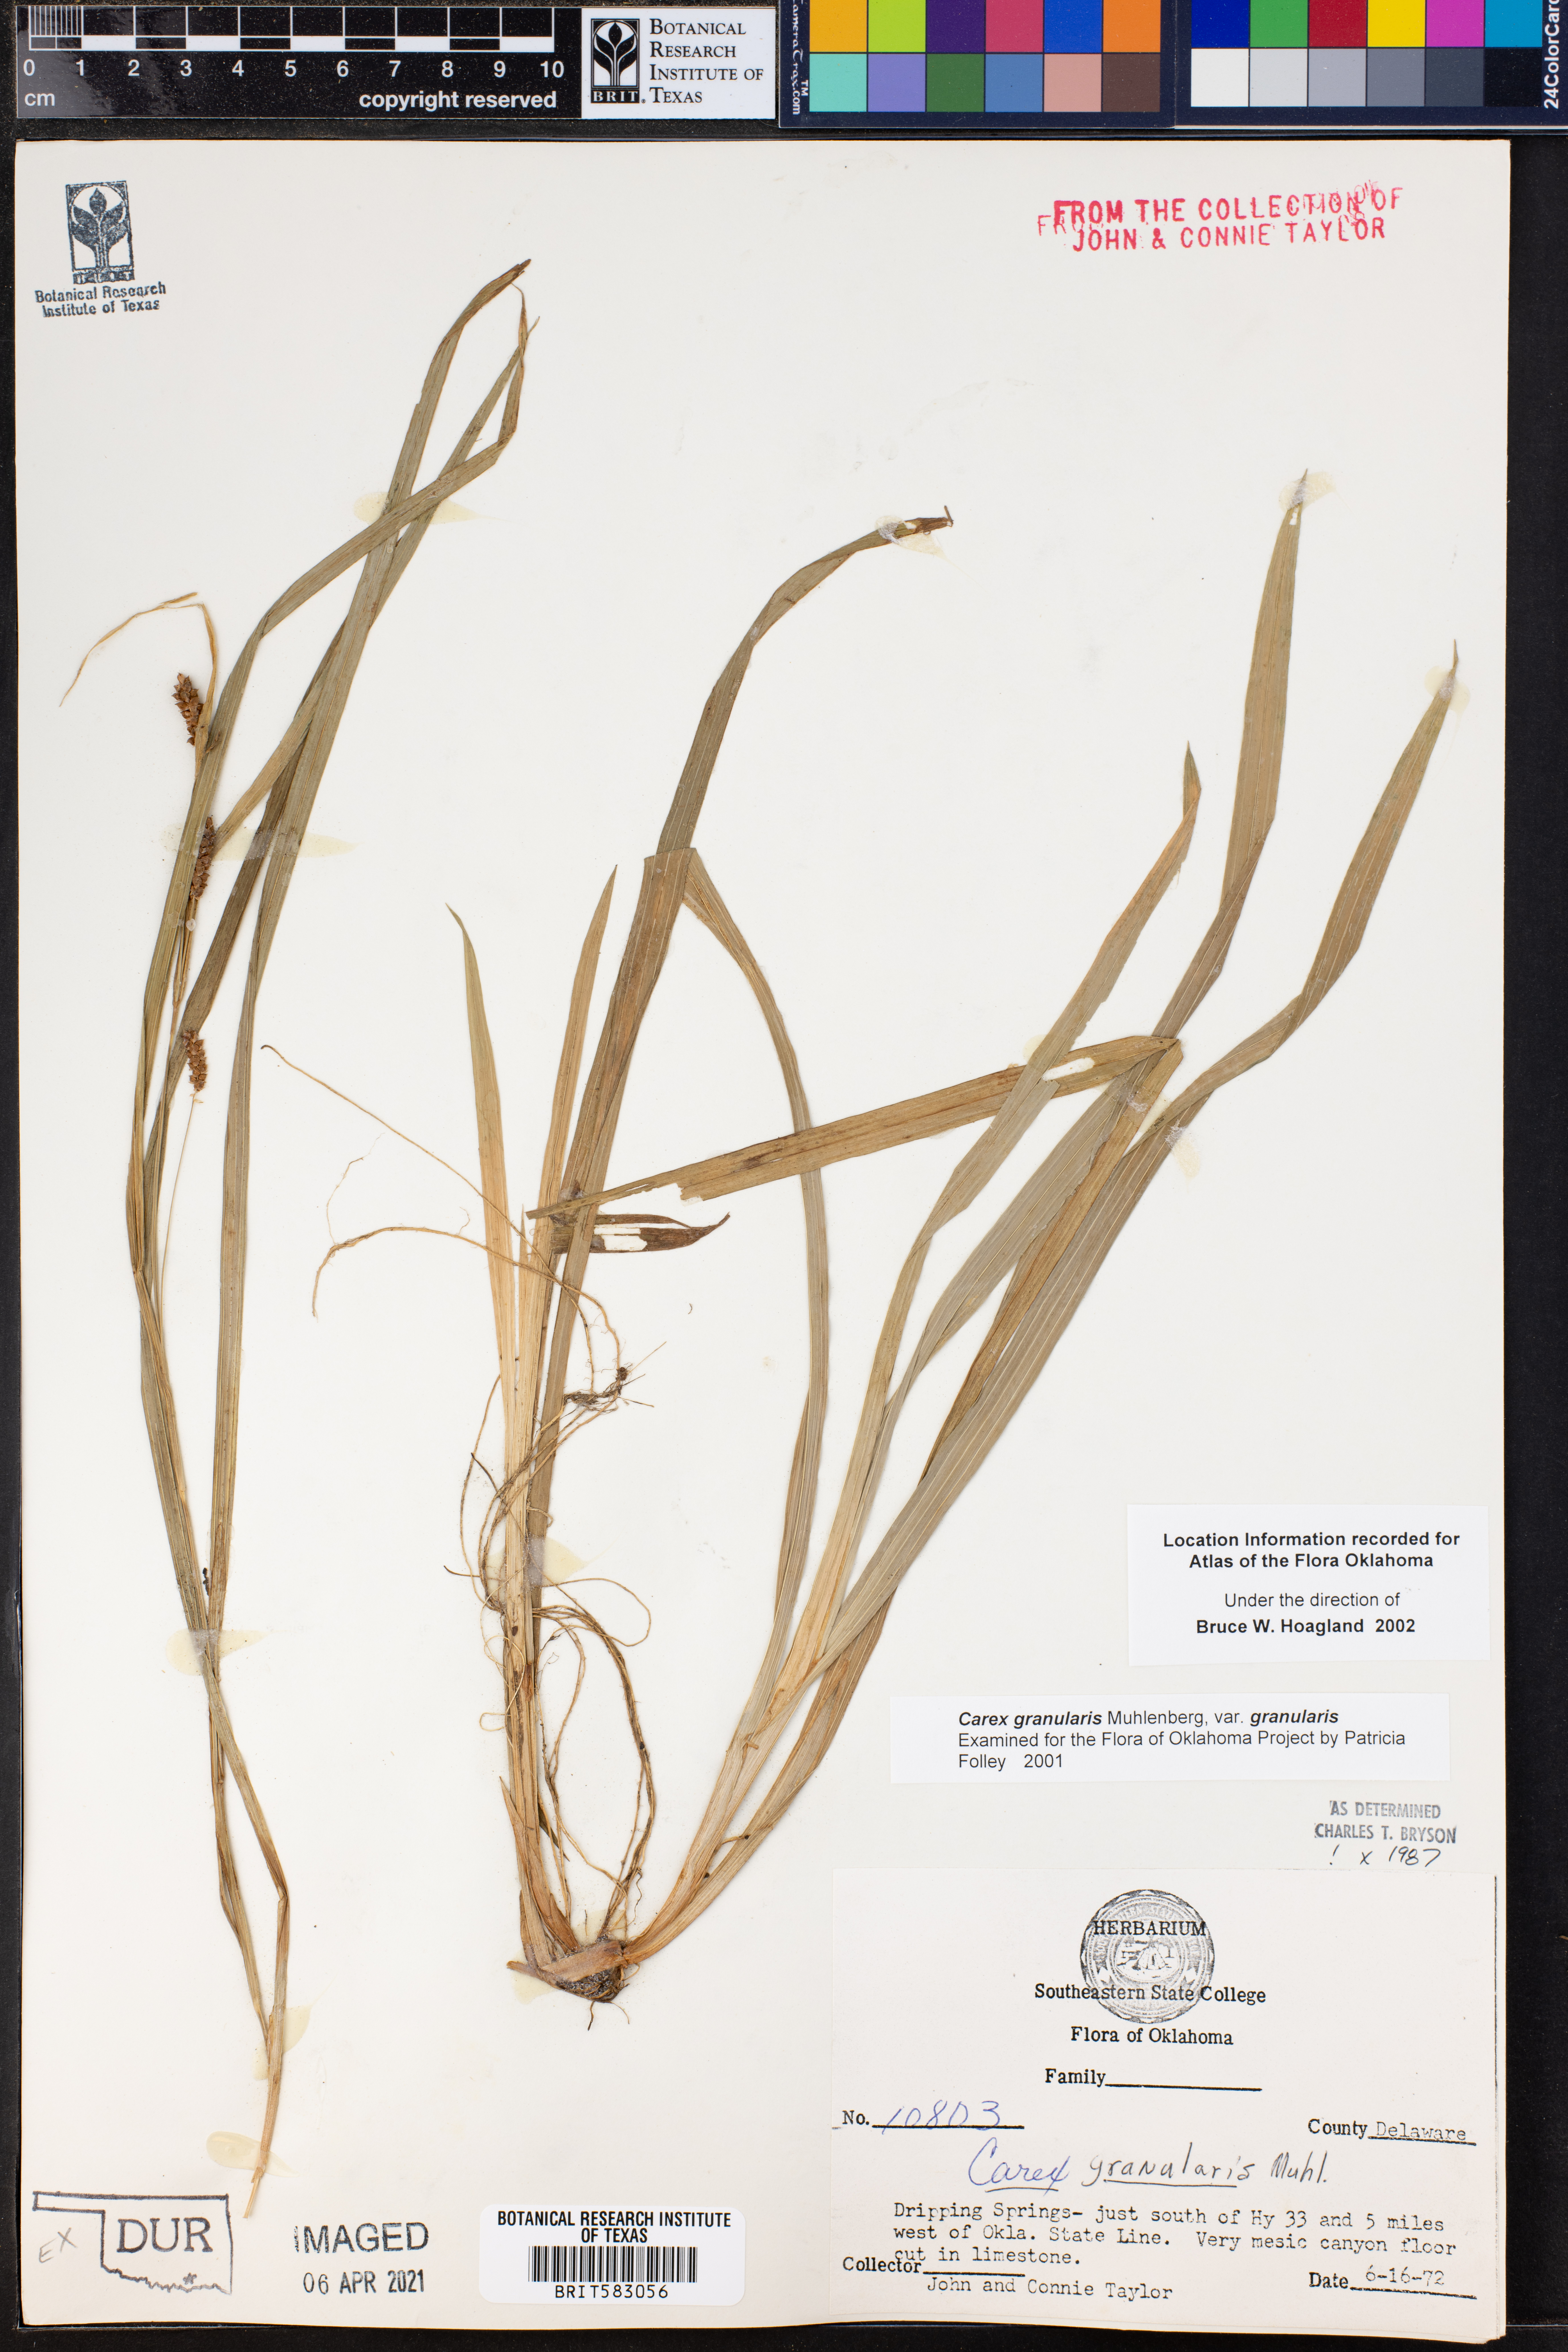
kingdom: Plantae
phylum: Tracheophyta
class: Liliopsida
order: Poales
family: Cyperaceae
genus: Carex
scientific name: Carex granularis
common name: Granular sedge
